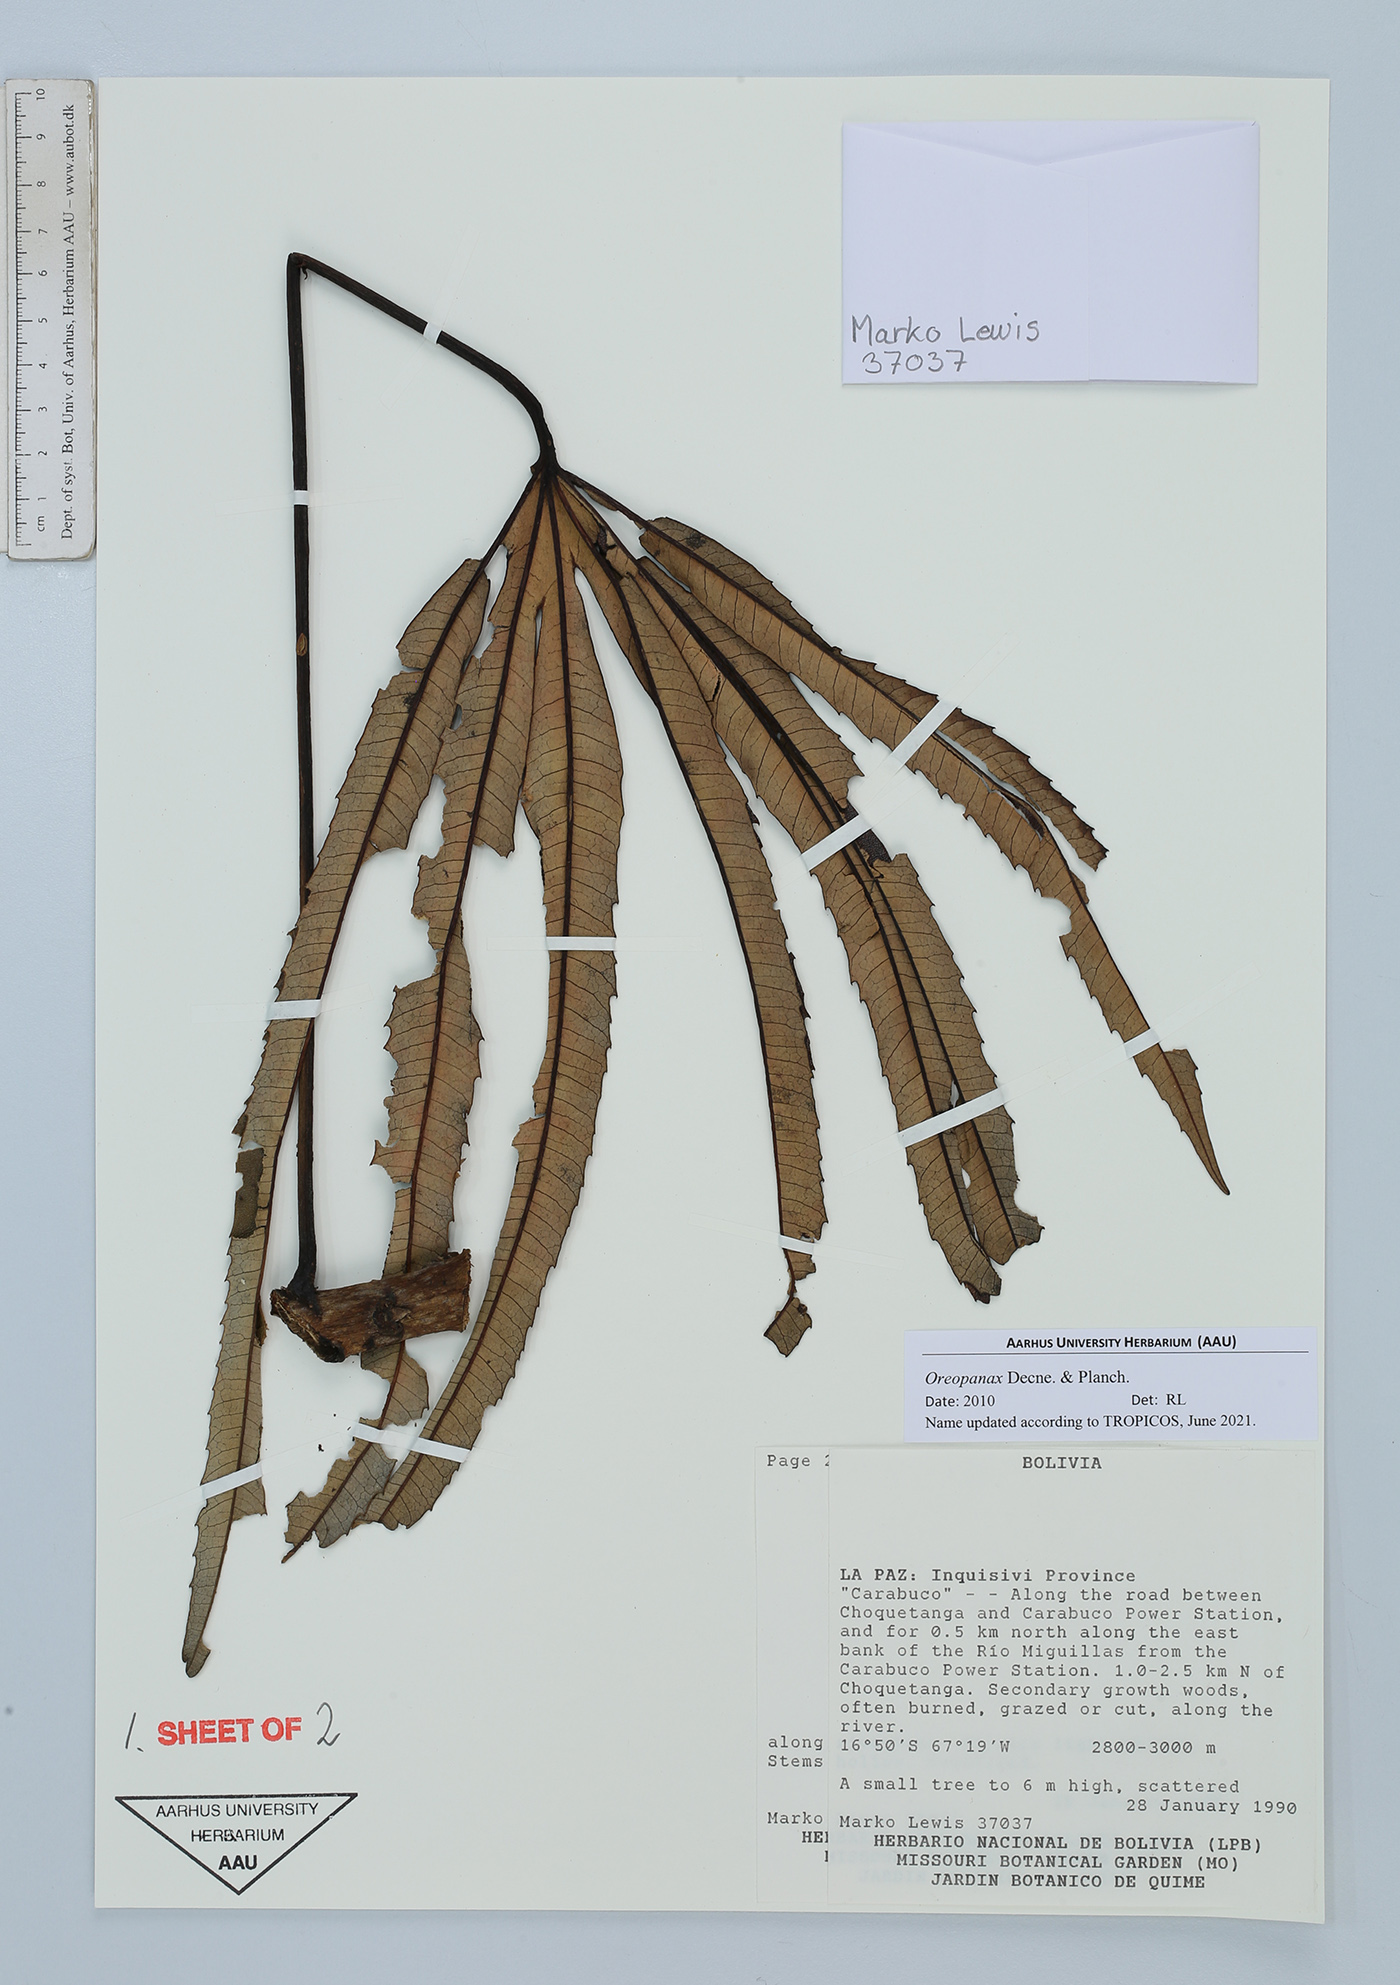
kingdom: Plantae
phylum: Tracheophyta
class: Magnoliopsida
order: Apiales
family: Araliaceae
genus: Oreopanax
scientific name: Oreopanax
